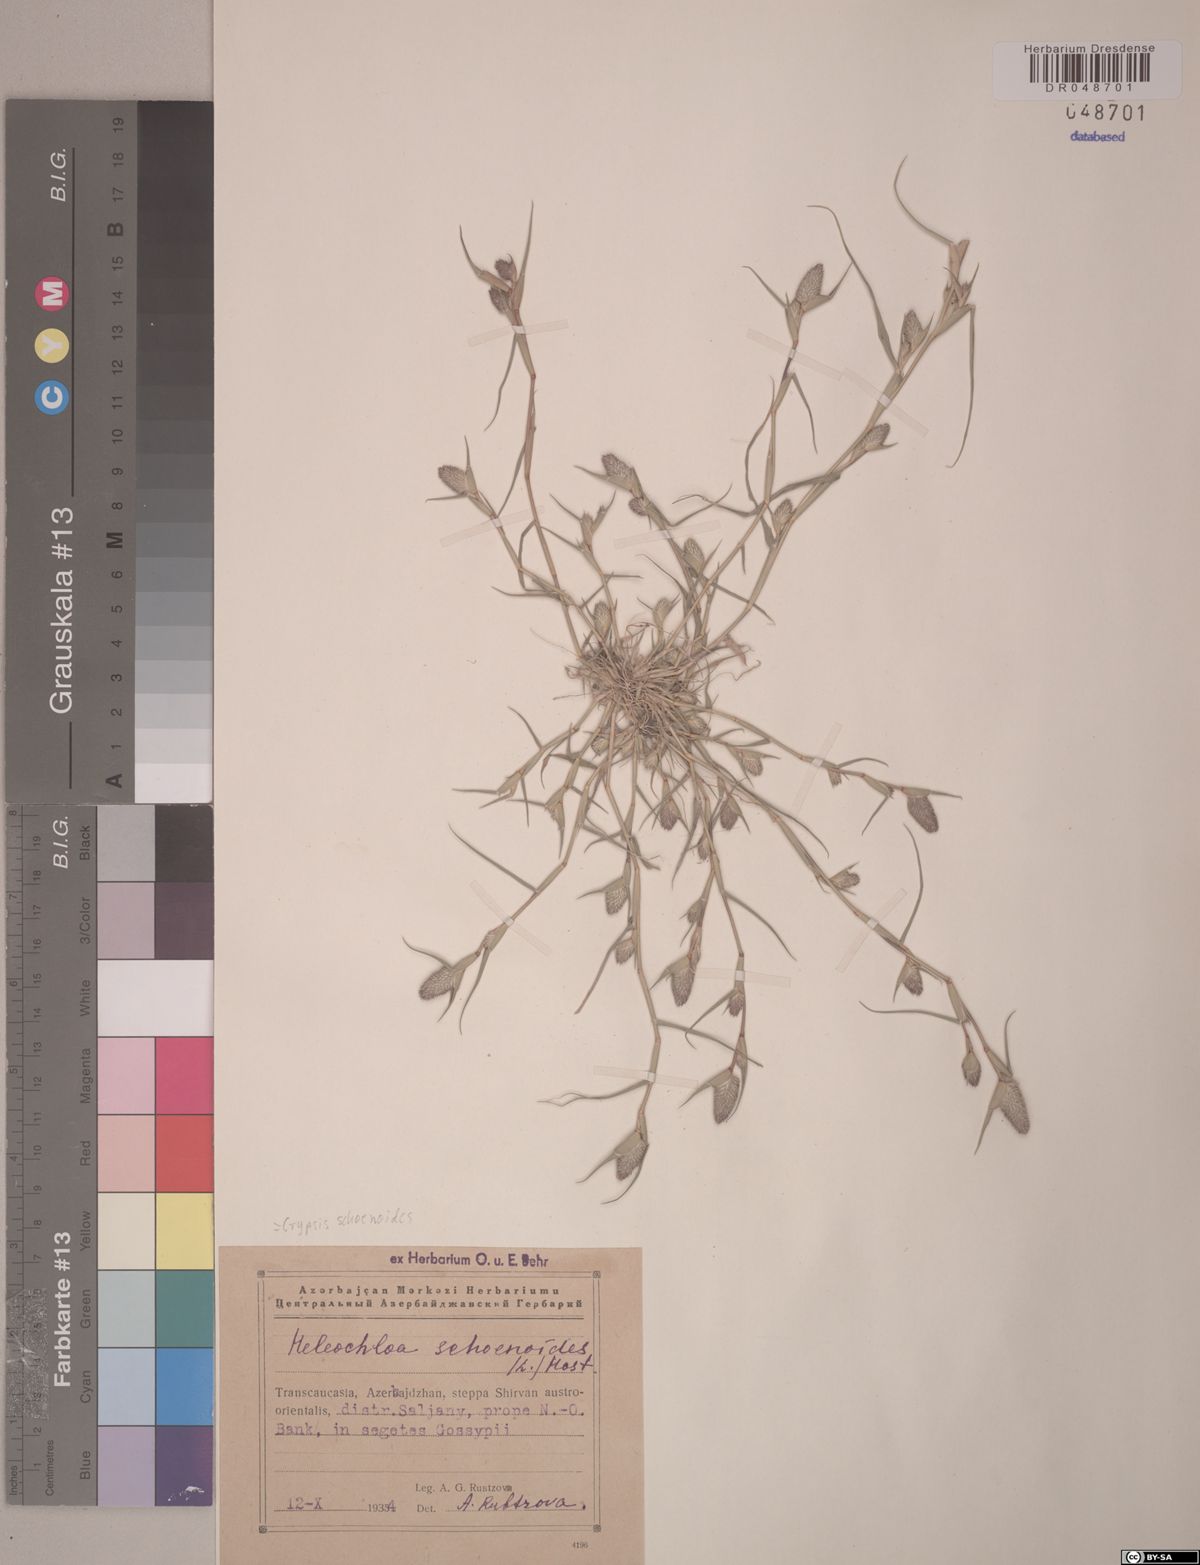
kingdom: Plantae
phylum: Tracheophyta
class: Liliopsida
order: Poales
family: Poaceae
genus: Sporobolus
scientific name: Sporobolus schoenoides
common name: Rush-like timothy
